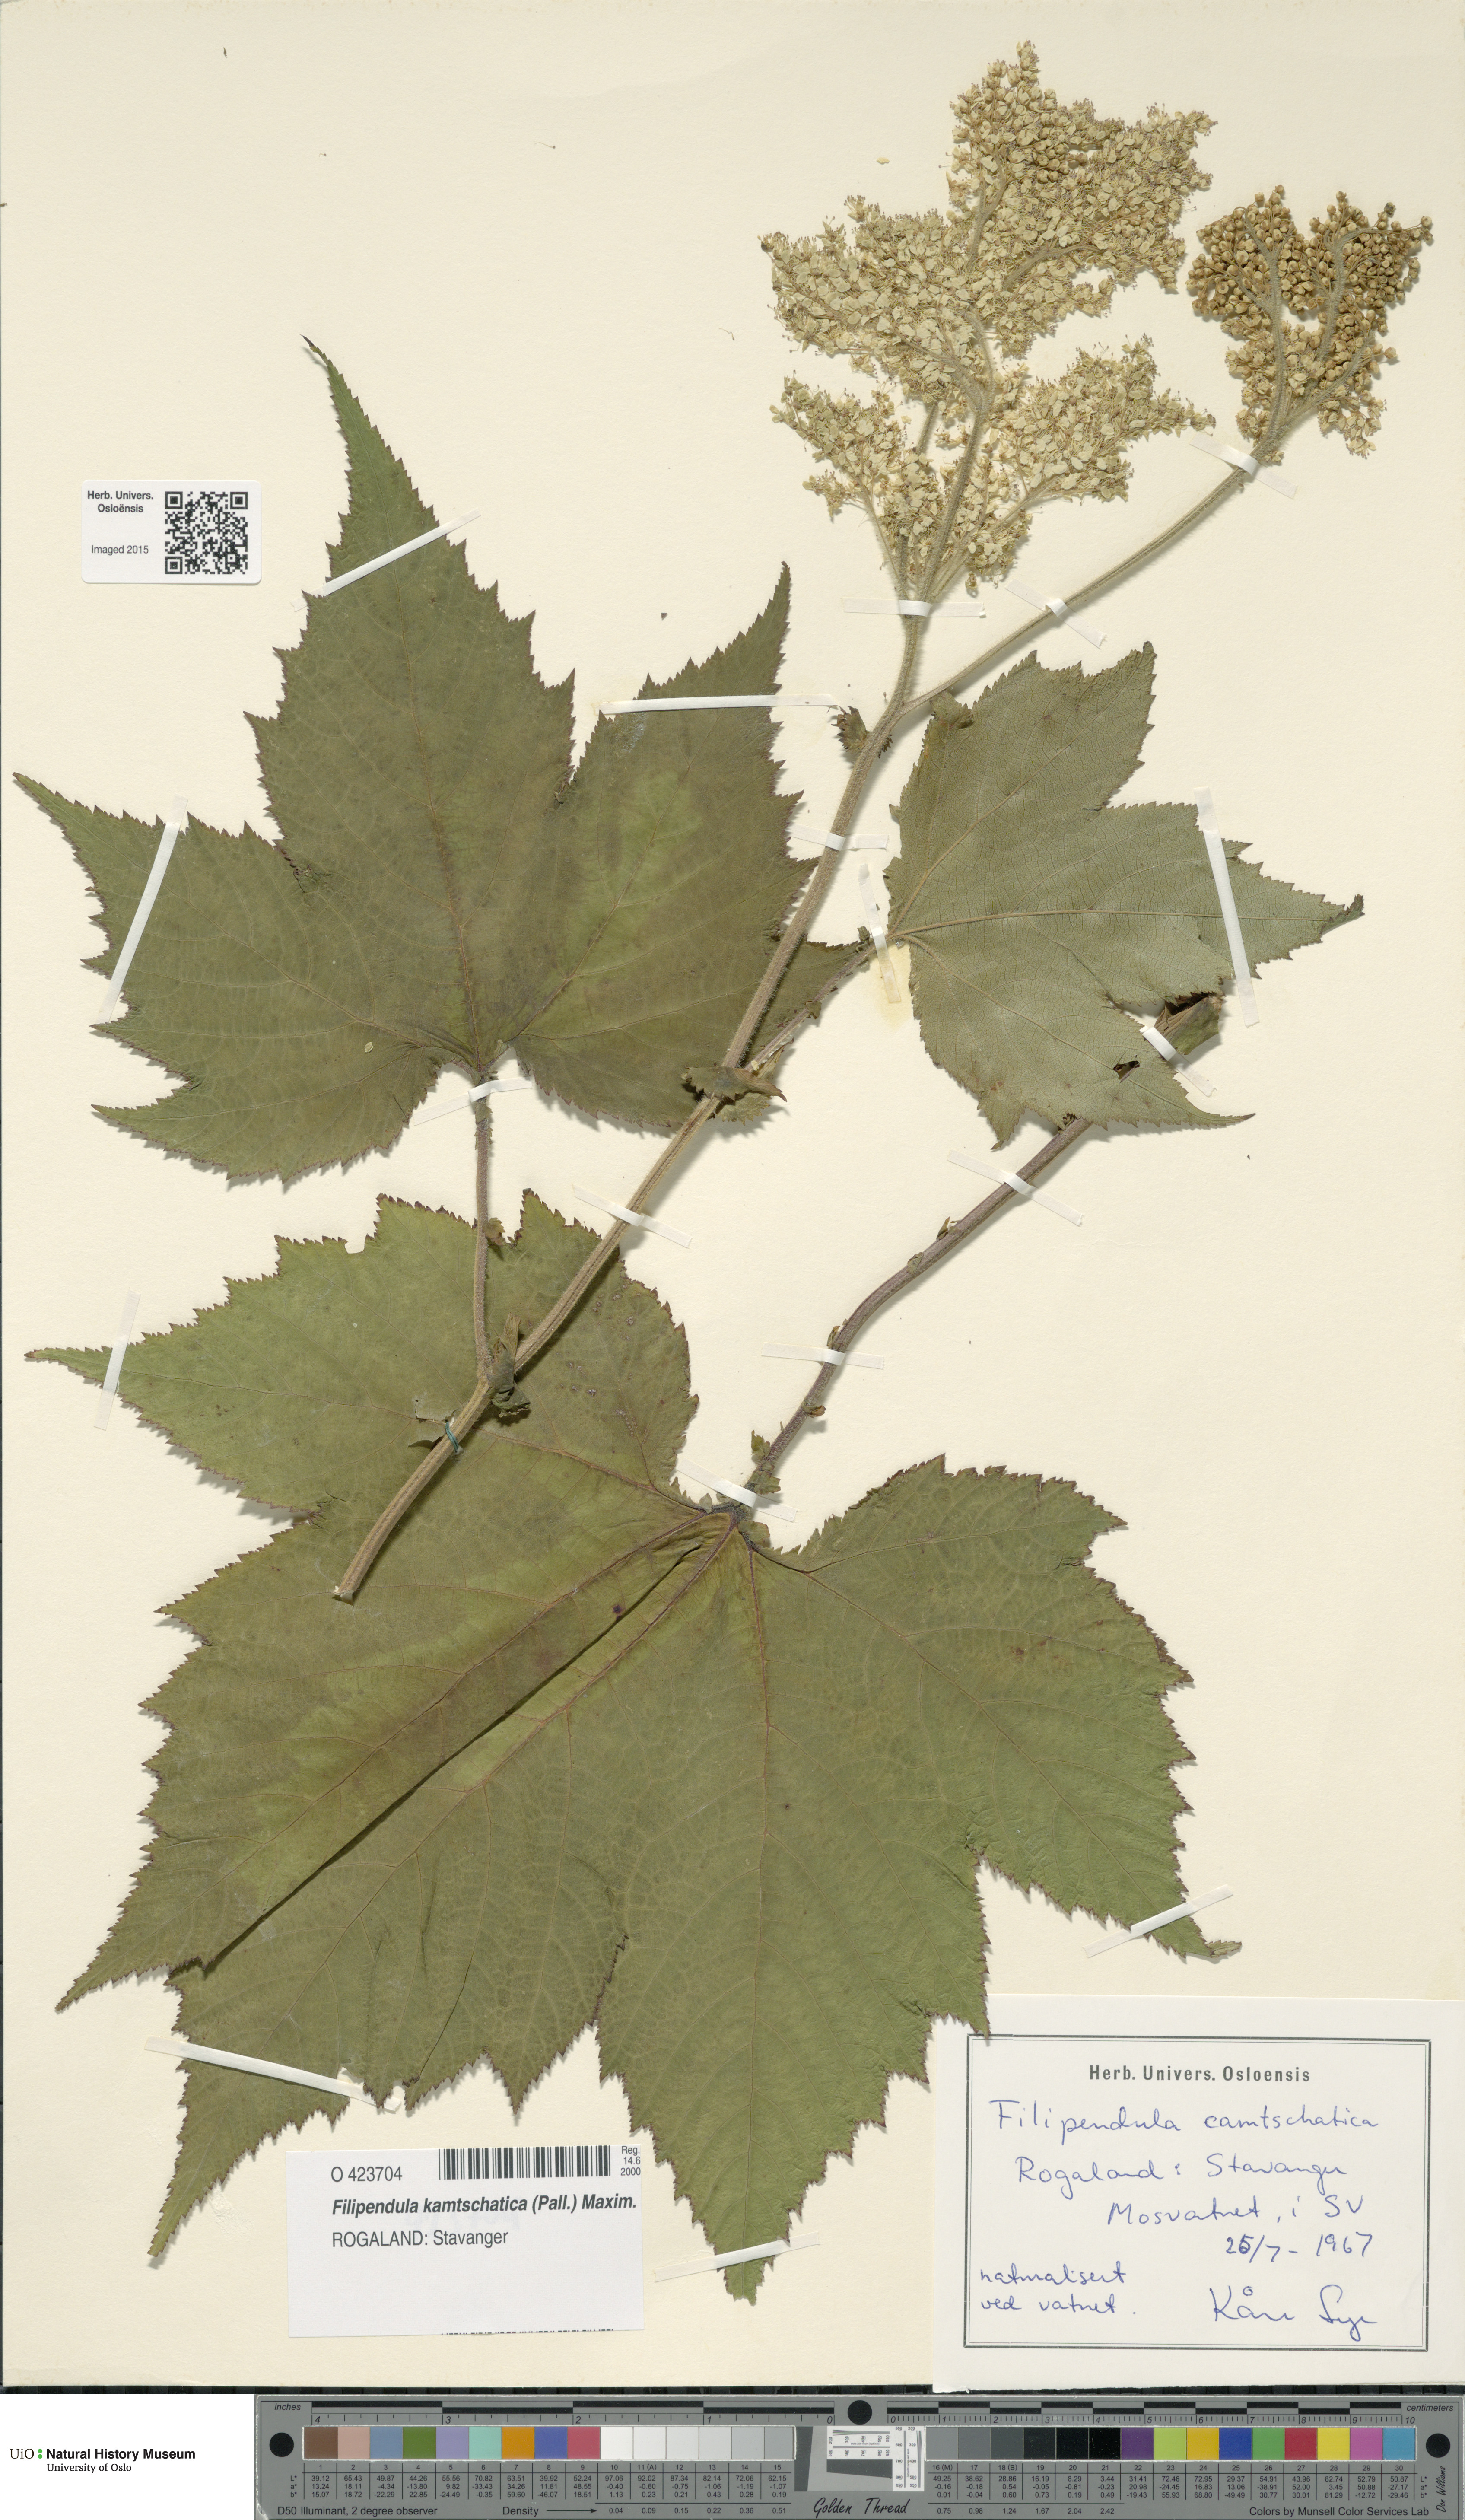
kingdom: Plantae
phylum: Tracheophyta
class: Magnoliopsida
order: Rosales
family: Rosaceae
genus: Filipendula
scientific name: Filipendula camschatica
